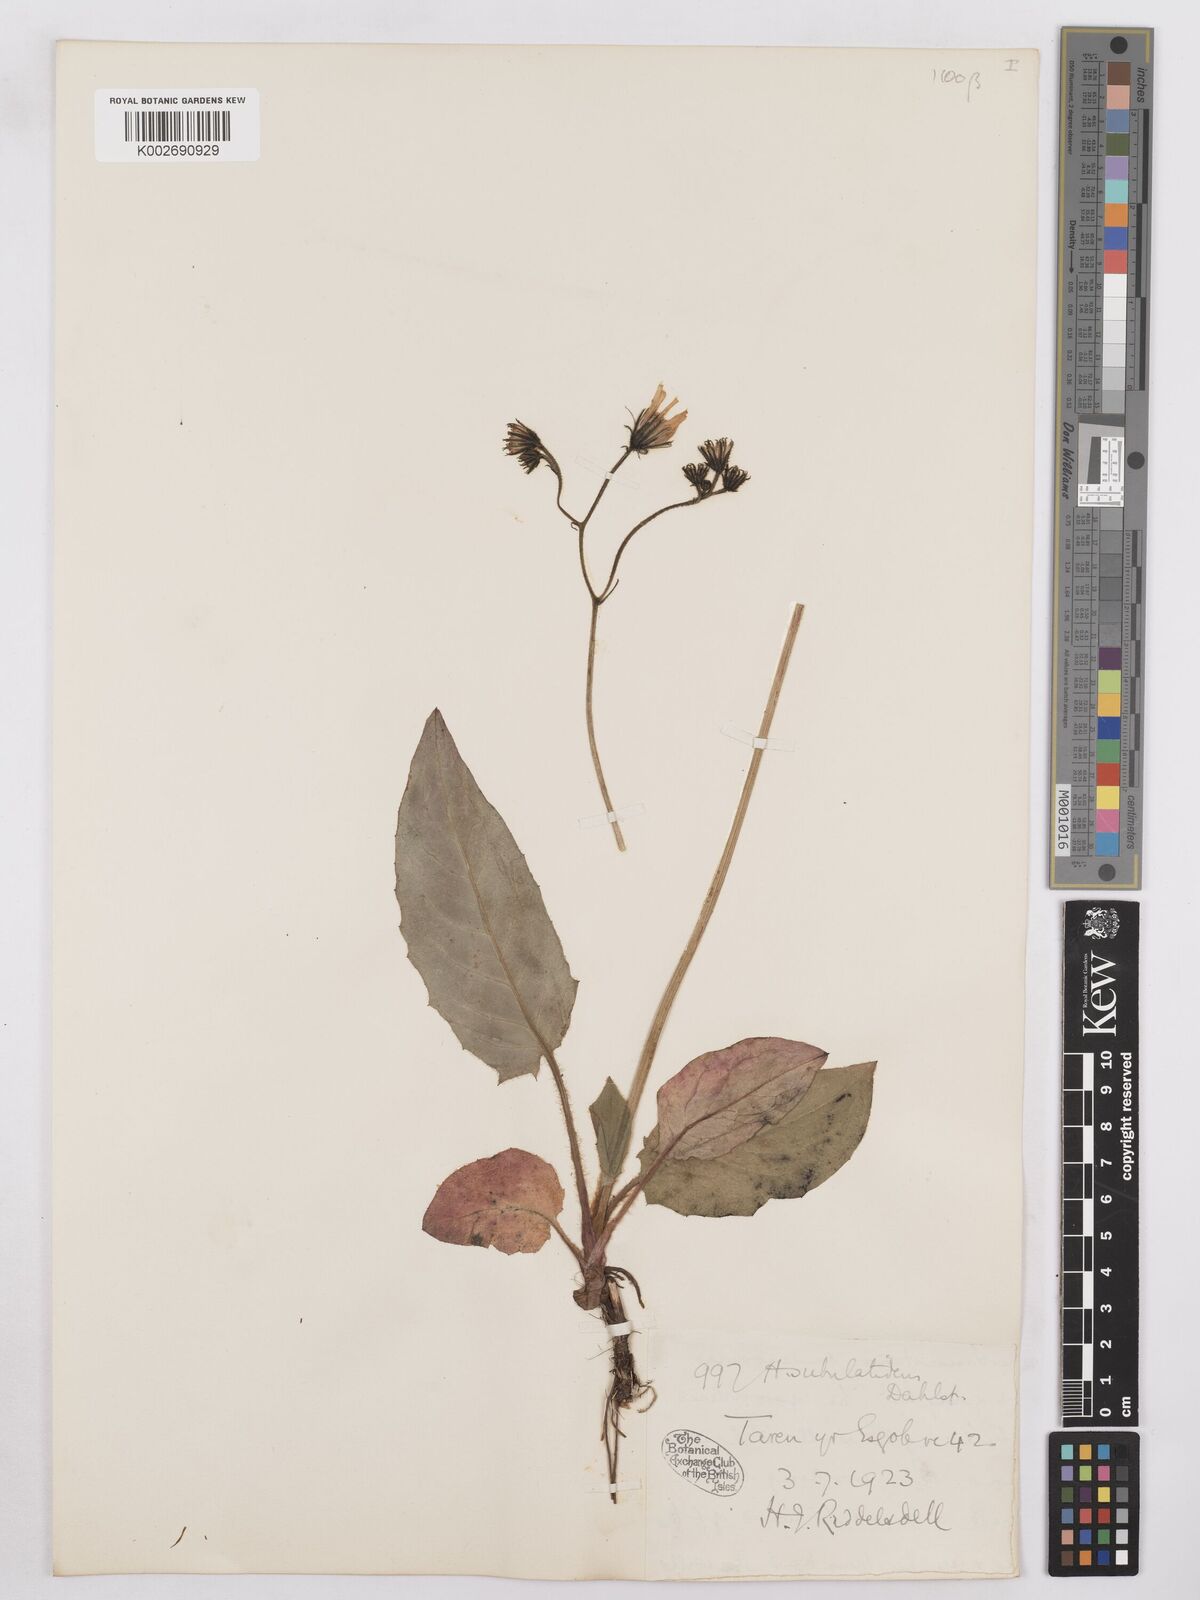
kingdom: Plantae
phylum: Tracheophyta
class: Magnoliopsida
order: Asterales
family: Asteraceae
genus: Hieracium
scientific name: Hieracium cuneifrons
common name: Wedge-leaved hawkweed
